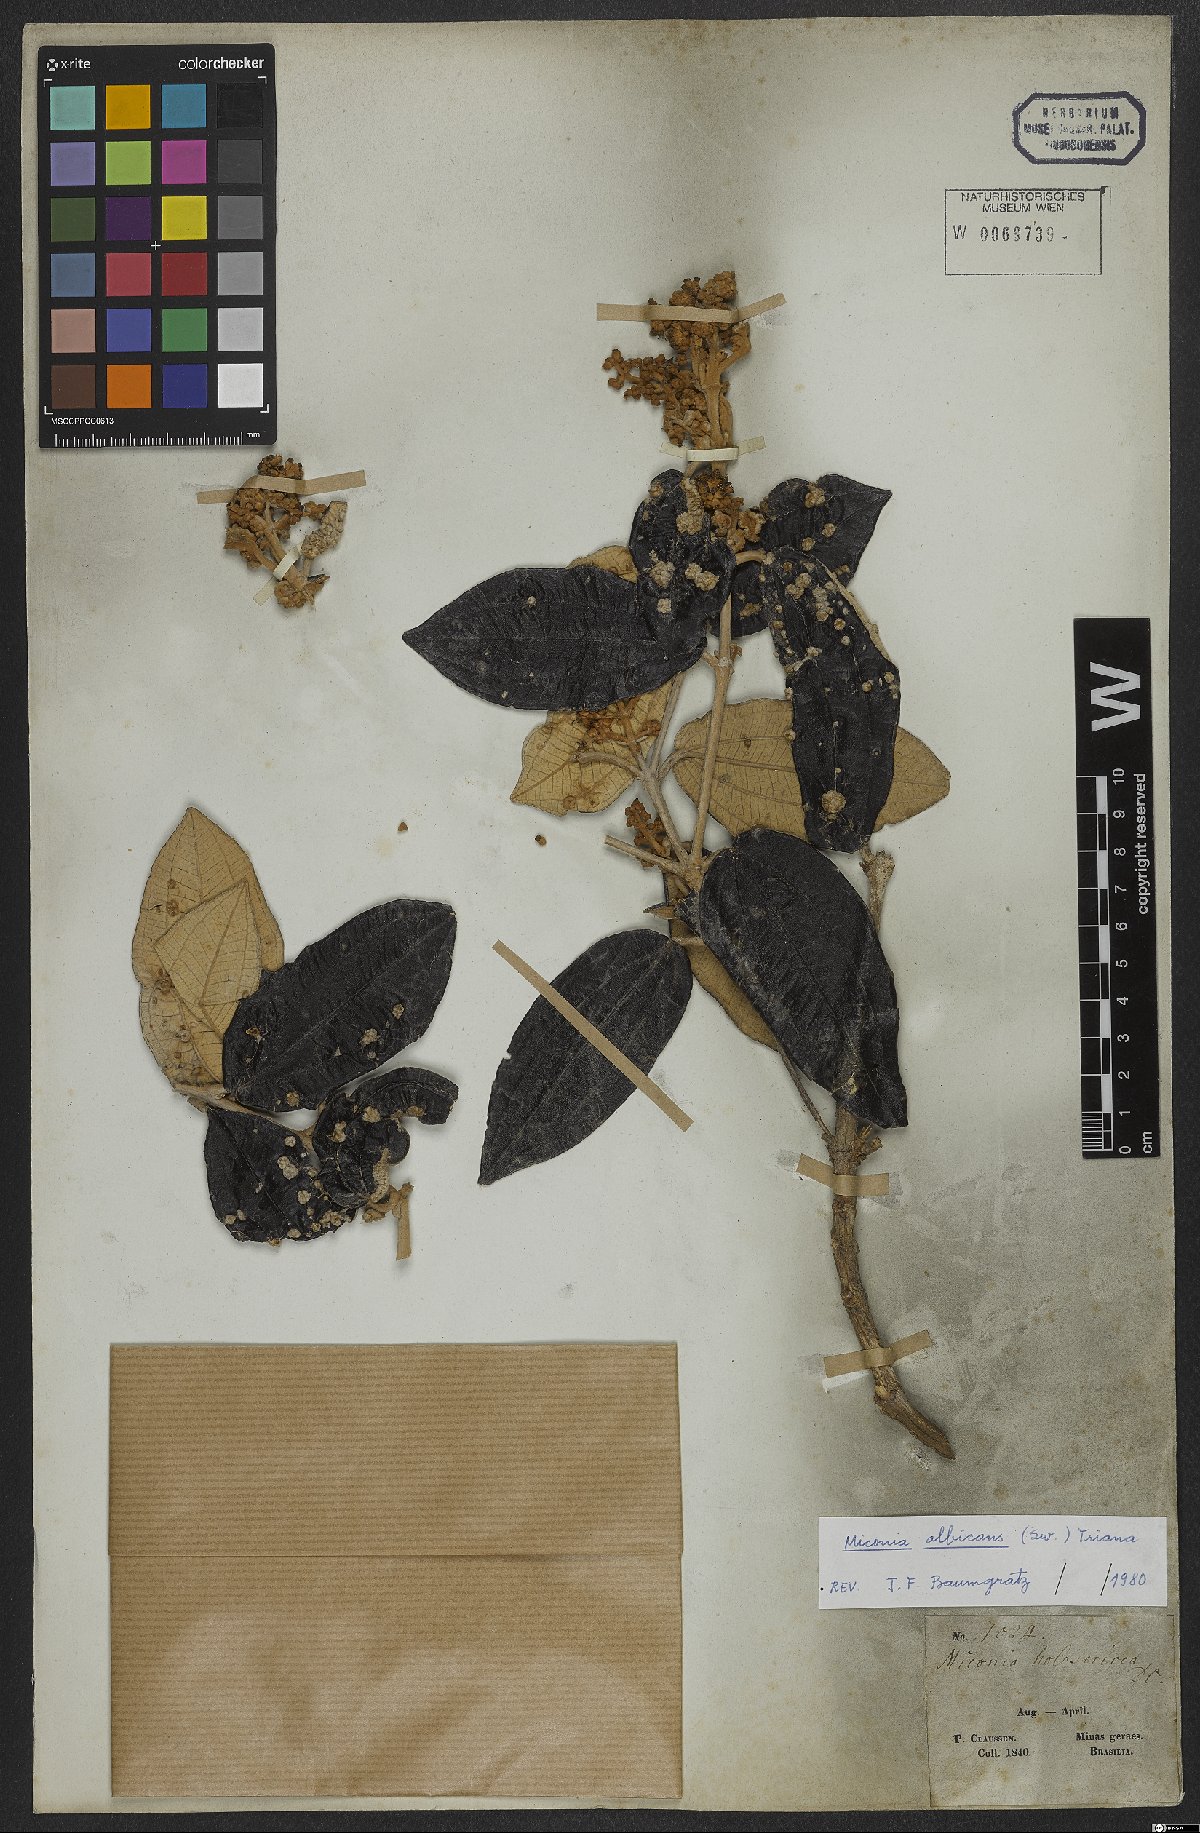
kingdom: Plantae
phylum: Tracheophyta
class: Magnoliopsida
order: Myrtales
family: Melastomataceae
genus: Miconia
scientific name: Miconia albicans
